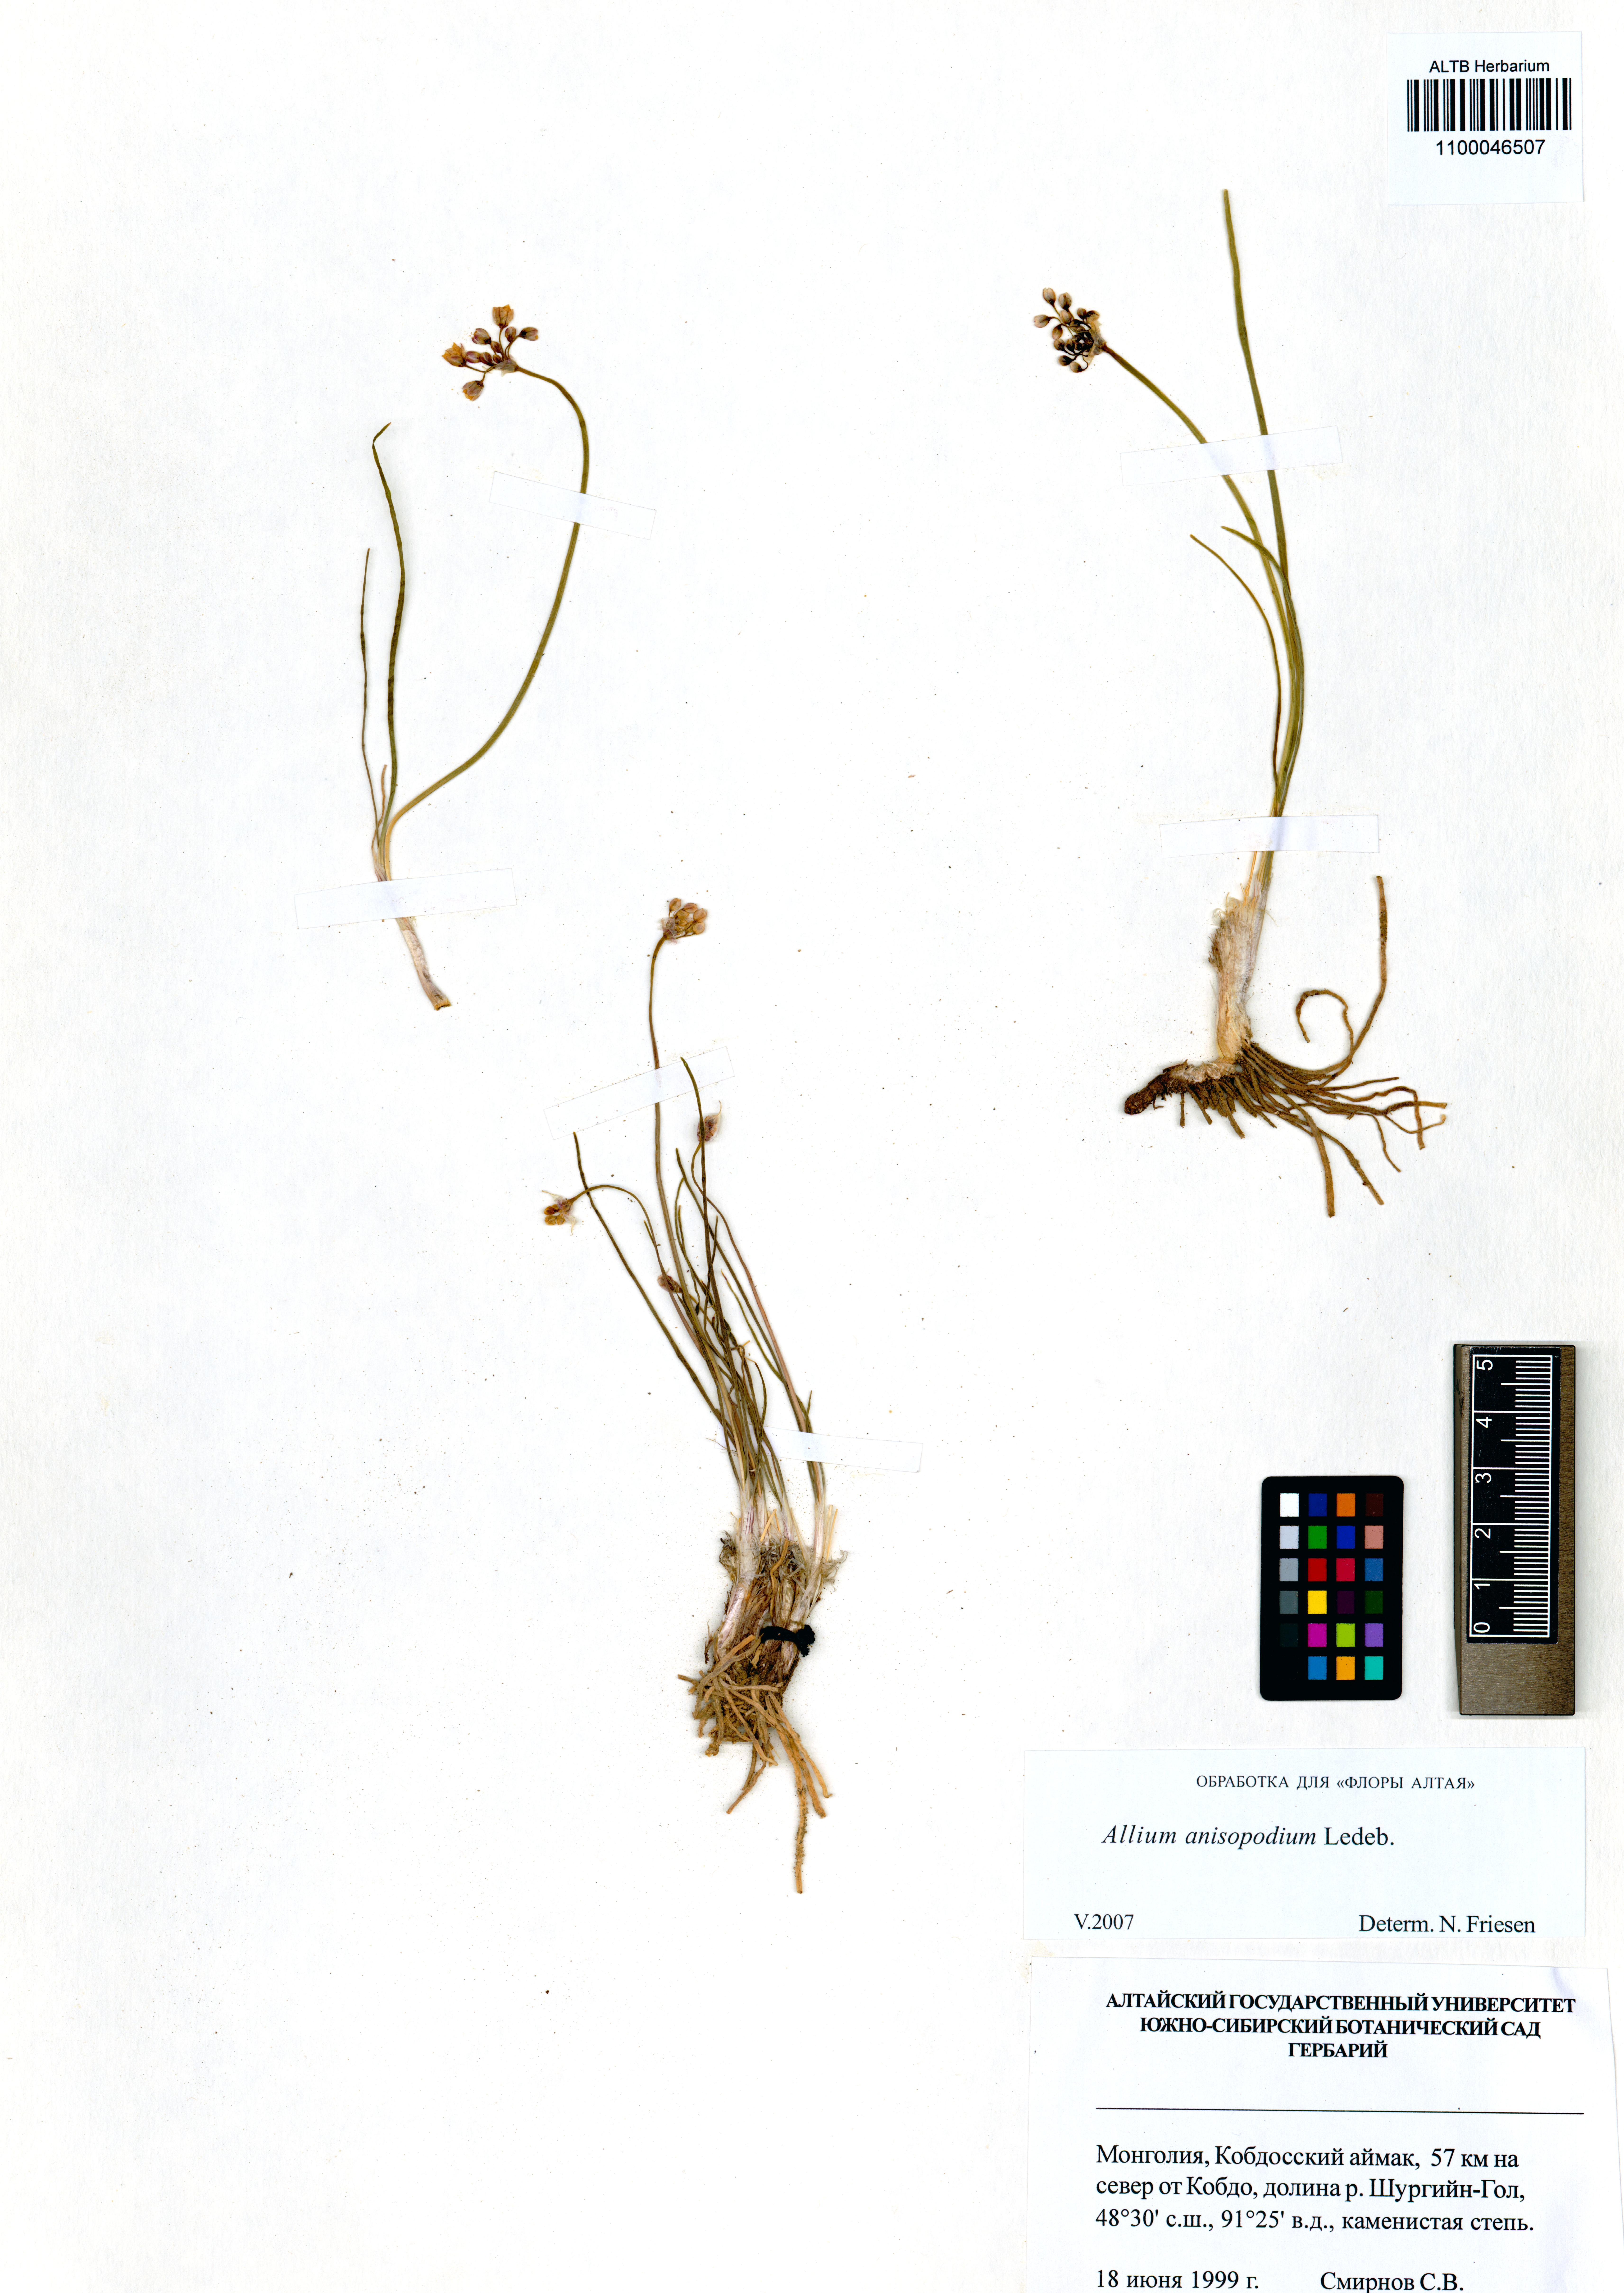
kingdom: Plantae
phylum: Tracheophyta
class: Liliopsida
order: Asparagales
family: Amaryllidaceae
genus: Allium
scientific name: Allium anisopodium
